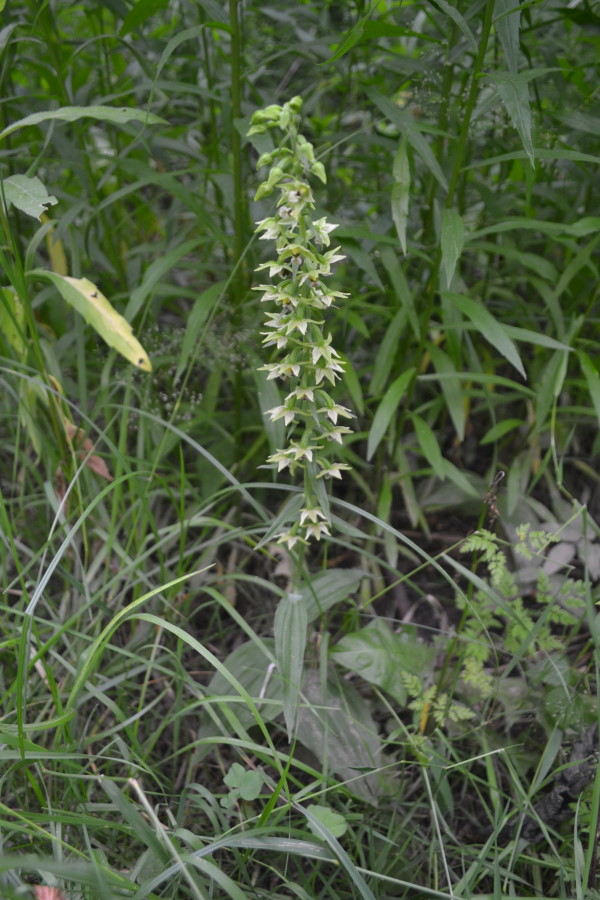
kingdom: Plantae
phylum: Tracheophyta
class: Liliopsida
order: Asparagales
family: Orchidaceae
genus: Epipactis
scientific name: Epipactis helleborine
